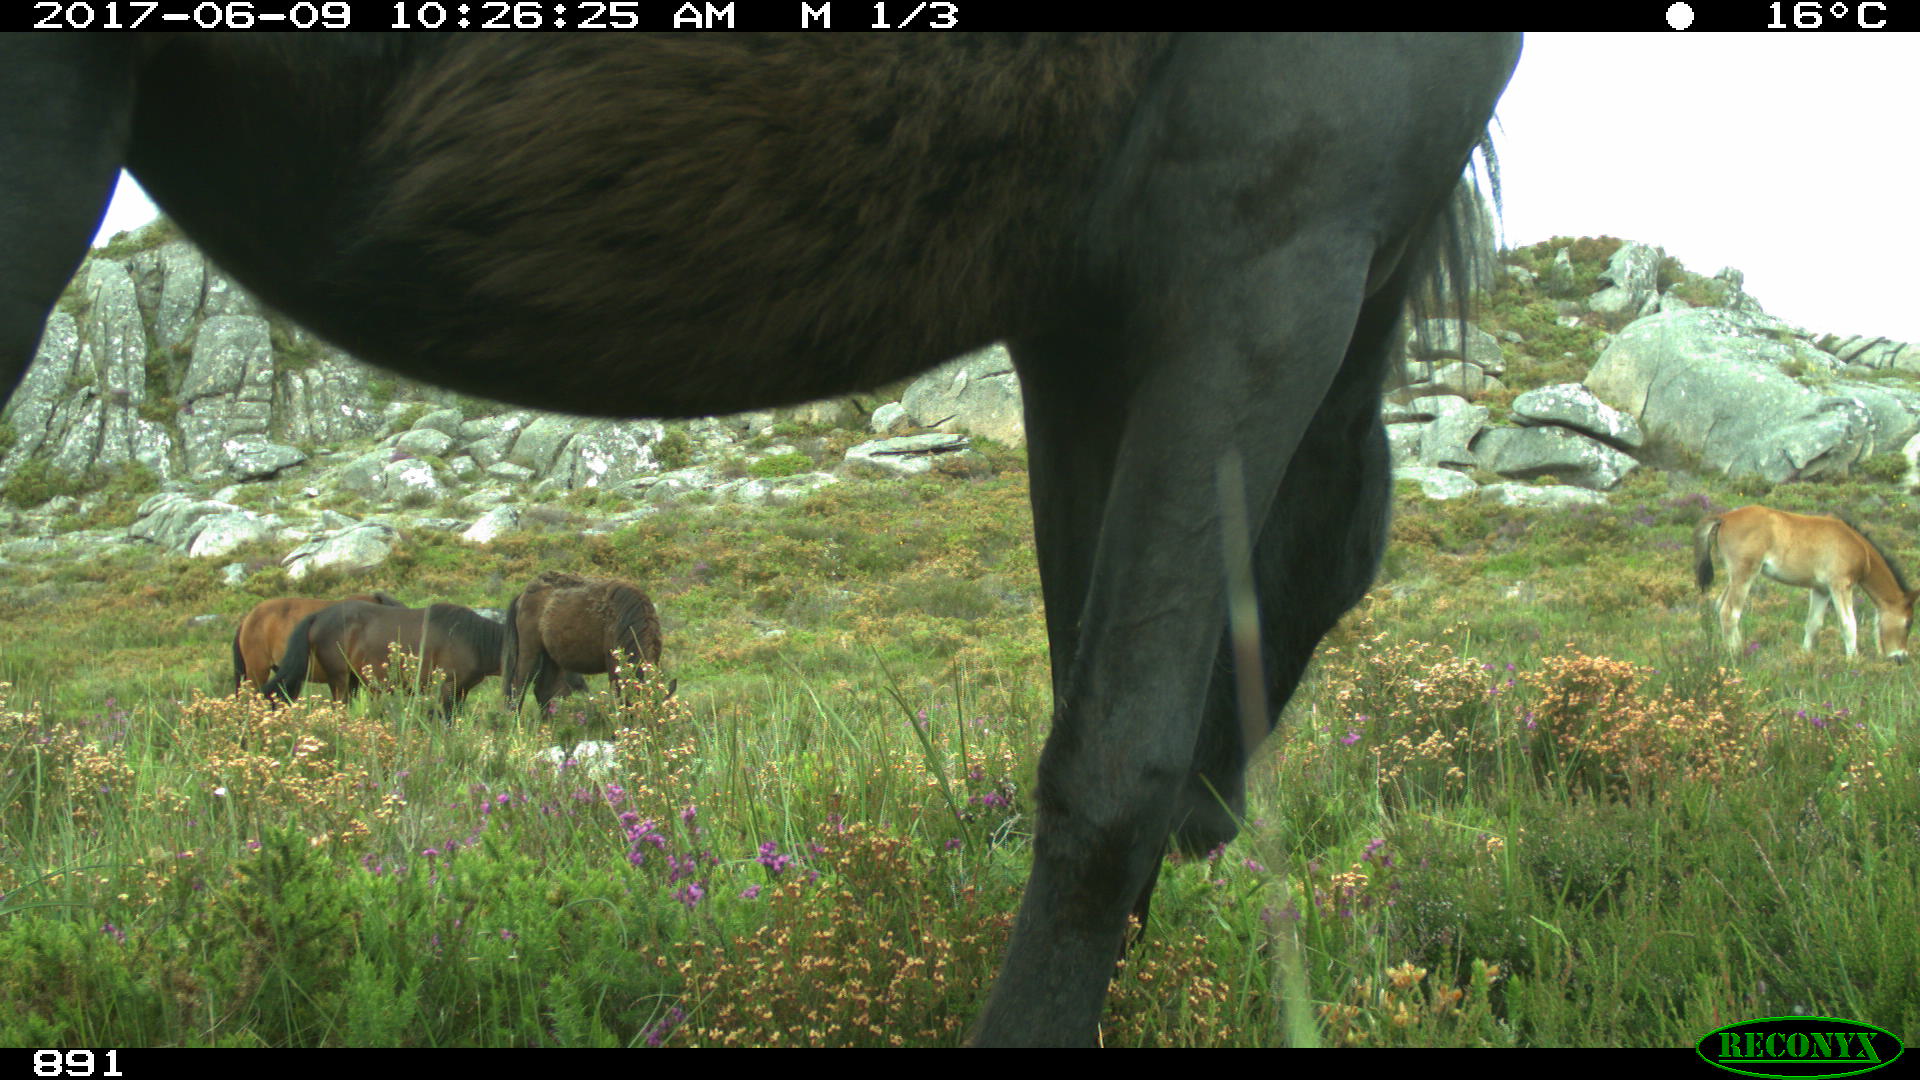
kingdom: Animalia
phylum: Chordata
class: Mammalia
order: Perissodactyla
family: Equidae
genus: Equus
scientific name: Equus caballus
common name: Horse
